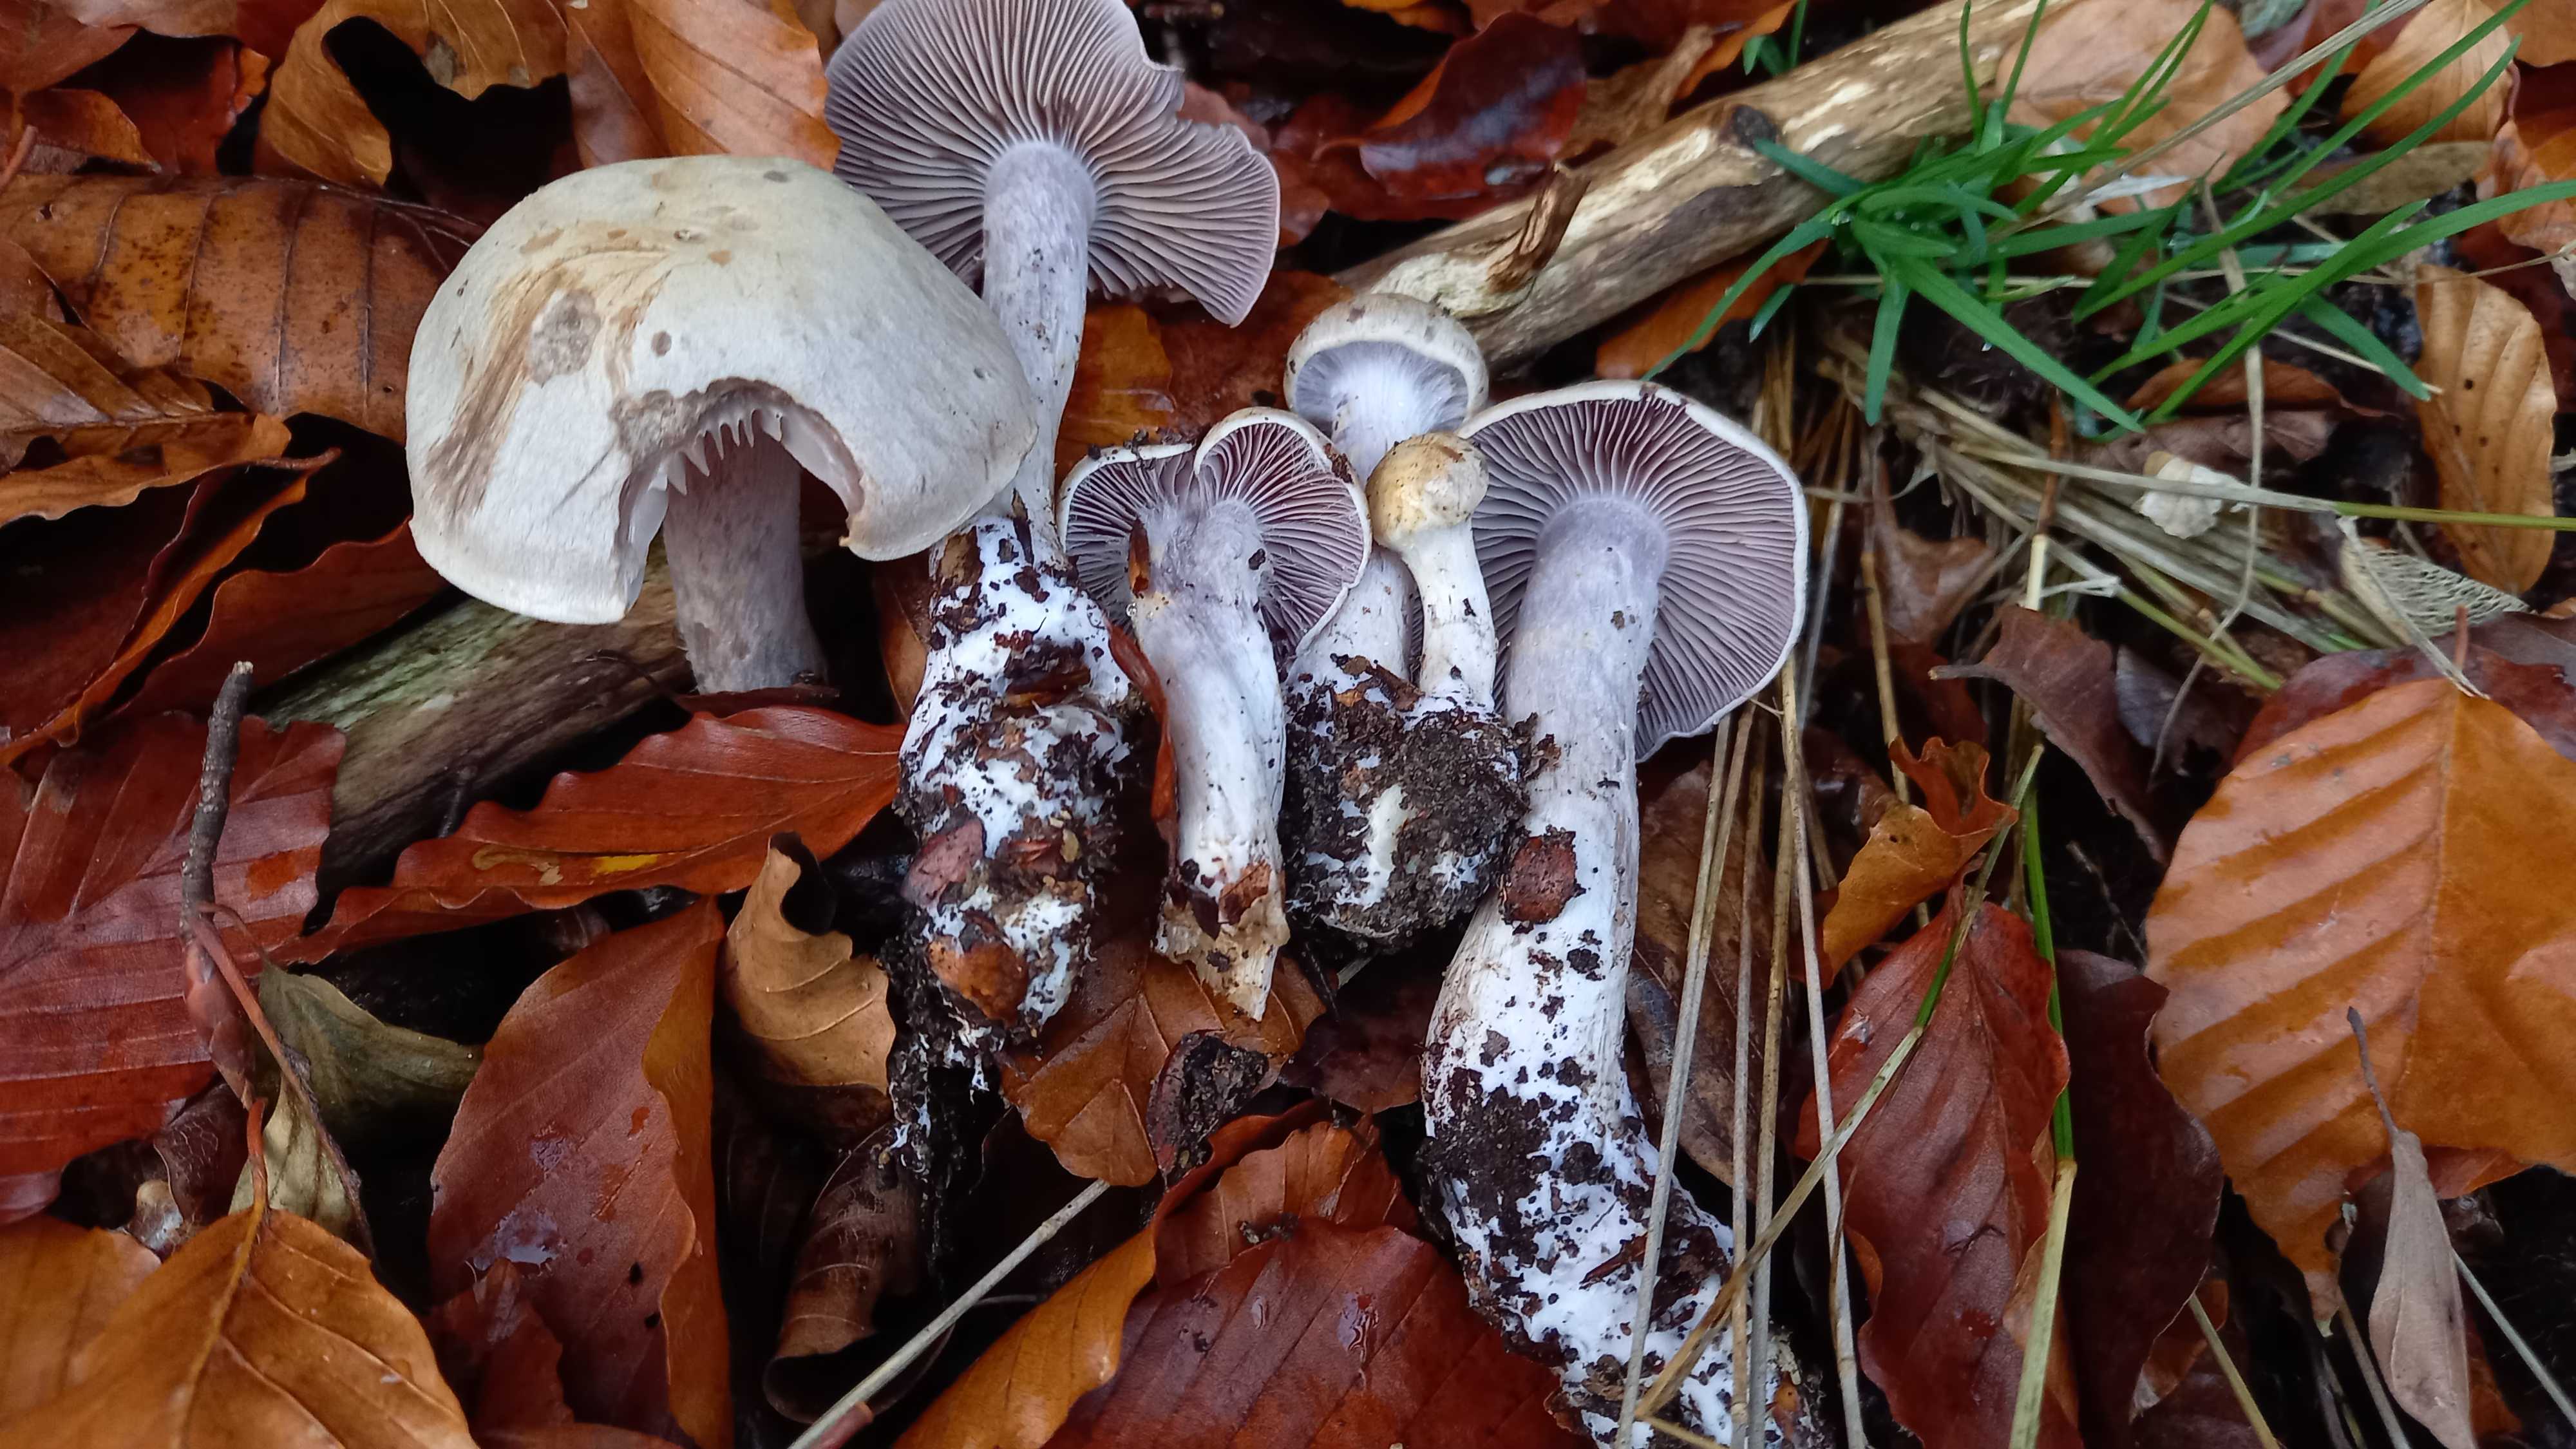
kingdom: Fungi
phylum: Basidiomycota
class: Agaricomycetes
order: Agaricales
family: Cortinariaceae
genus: Cortinarius
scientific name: Cortinarius
